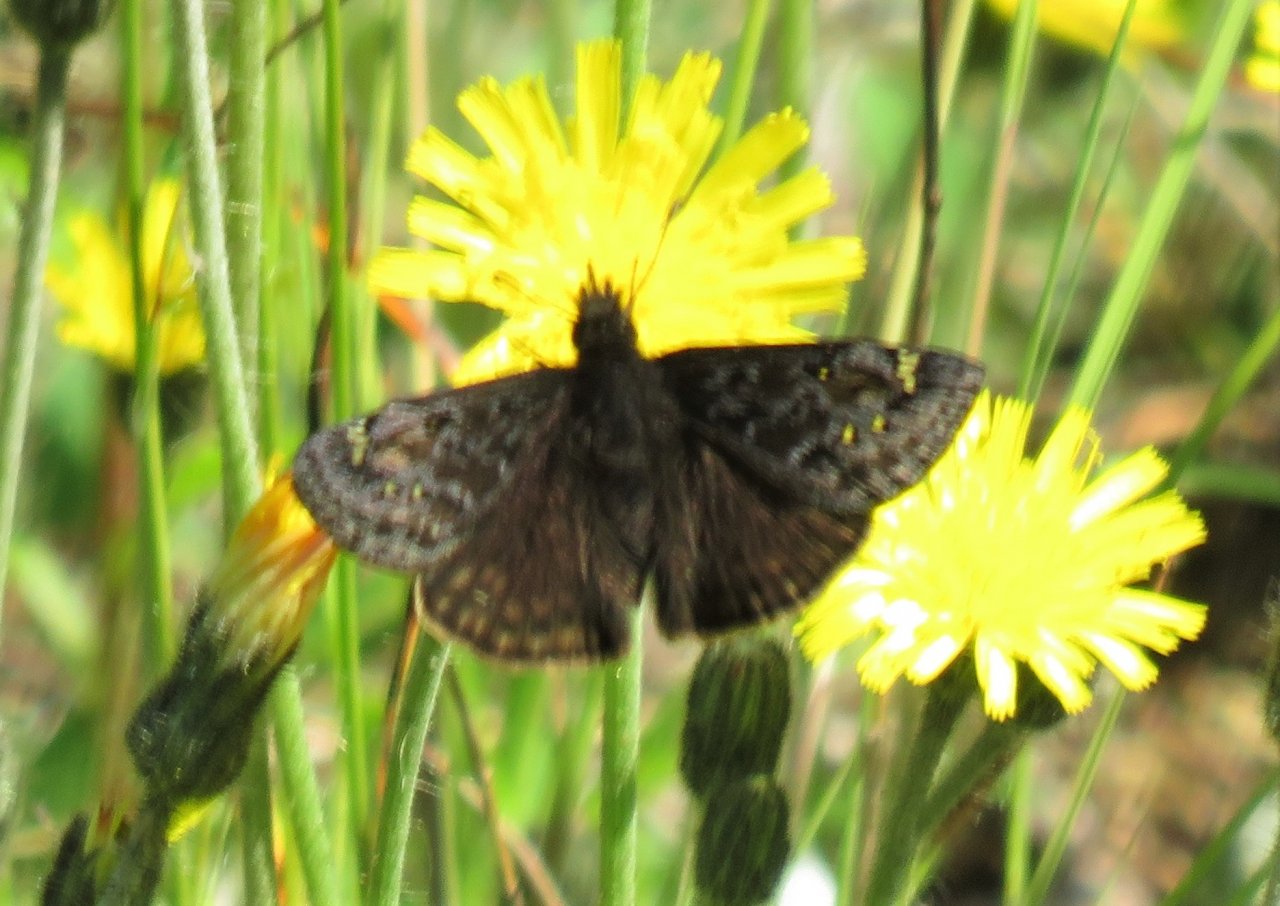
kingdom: Animalia
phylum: Arthropoda
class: Insecta
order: Lepidoptera
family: Hesperiidae
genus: Gesta
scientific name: Gesta
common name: Juvenal's Duskywing
